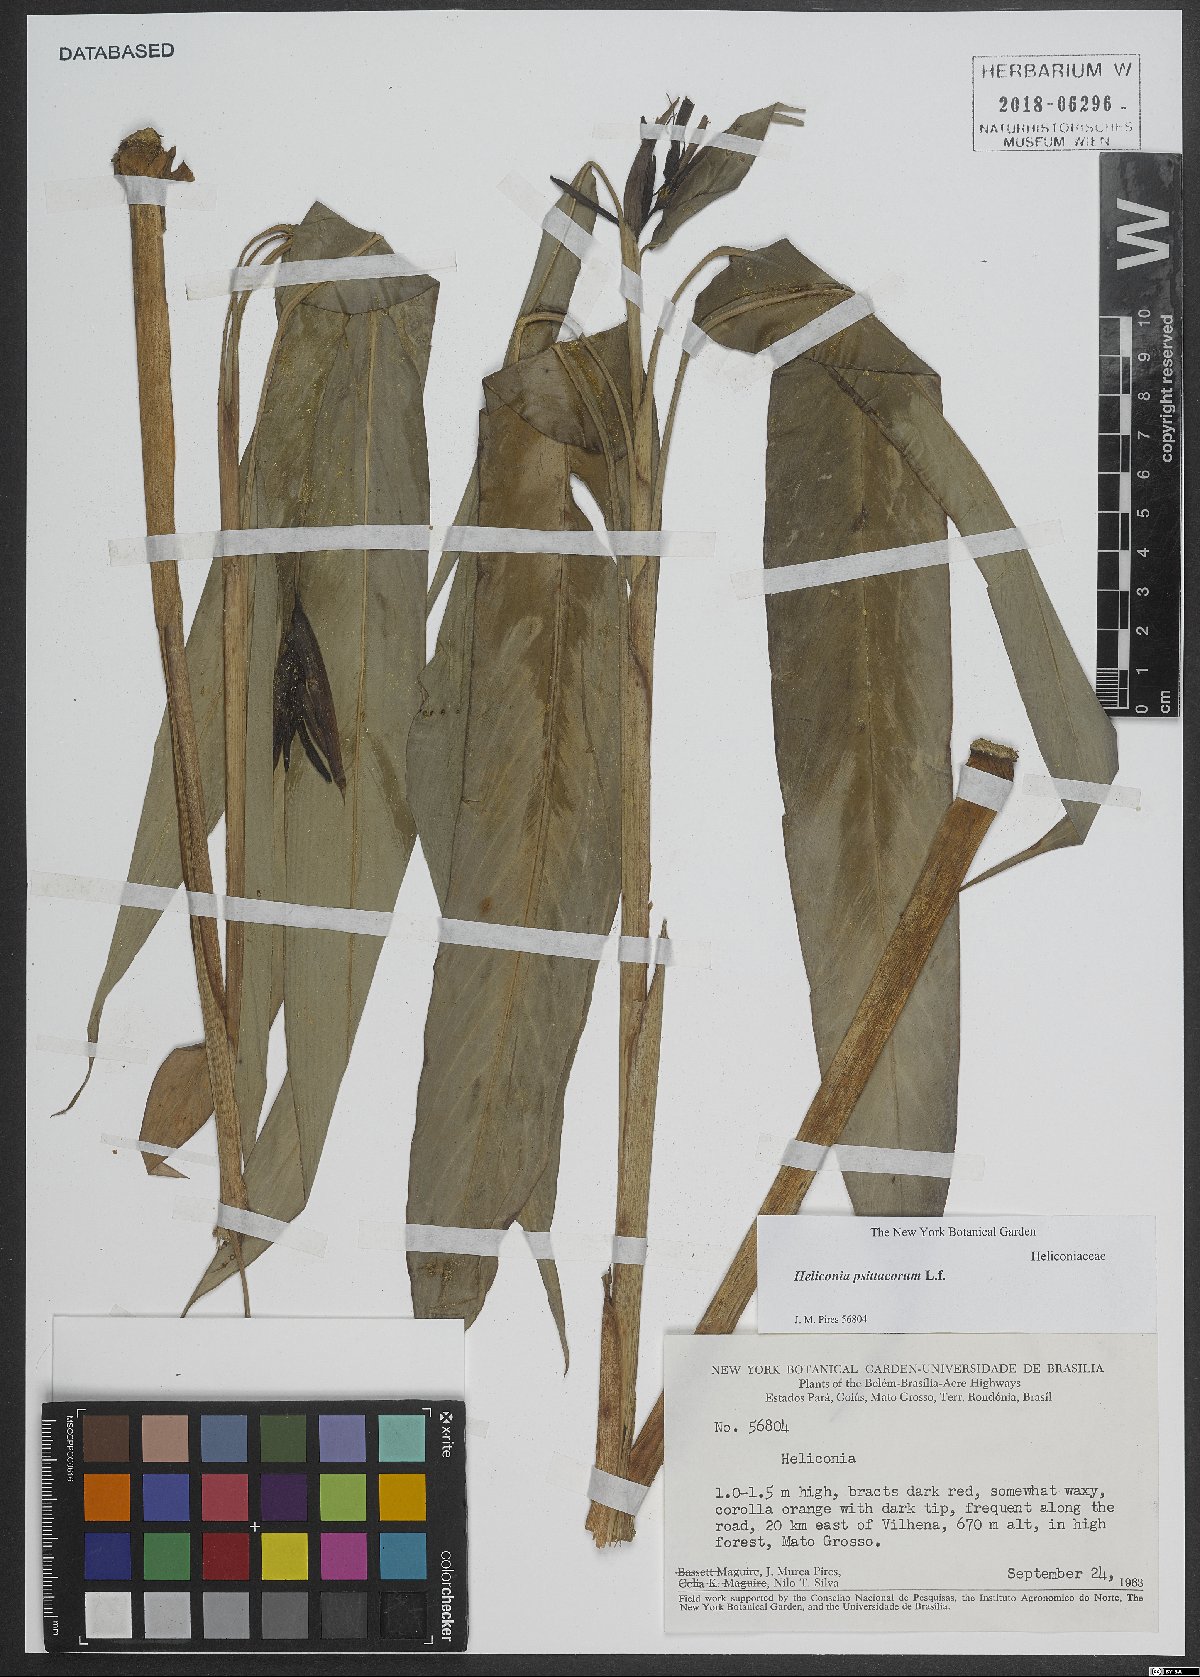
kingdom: Plantae
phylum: Tracheophyta
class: Liliopsida
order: Zingiberales
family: Heliconiaceae
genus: Heliconia
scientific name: Heliconia psittacorum
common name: Parrot's-flower
